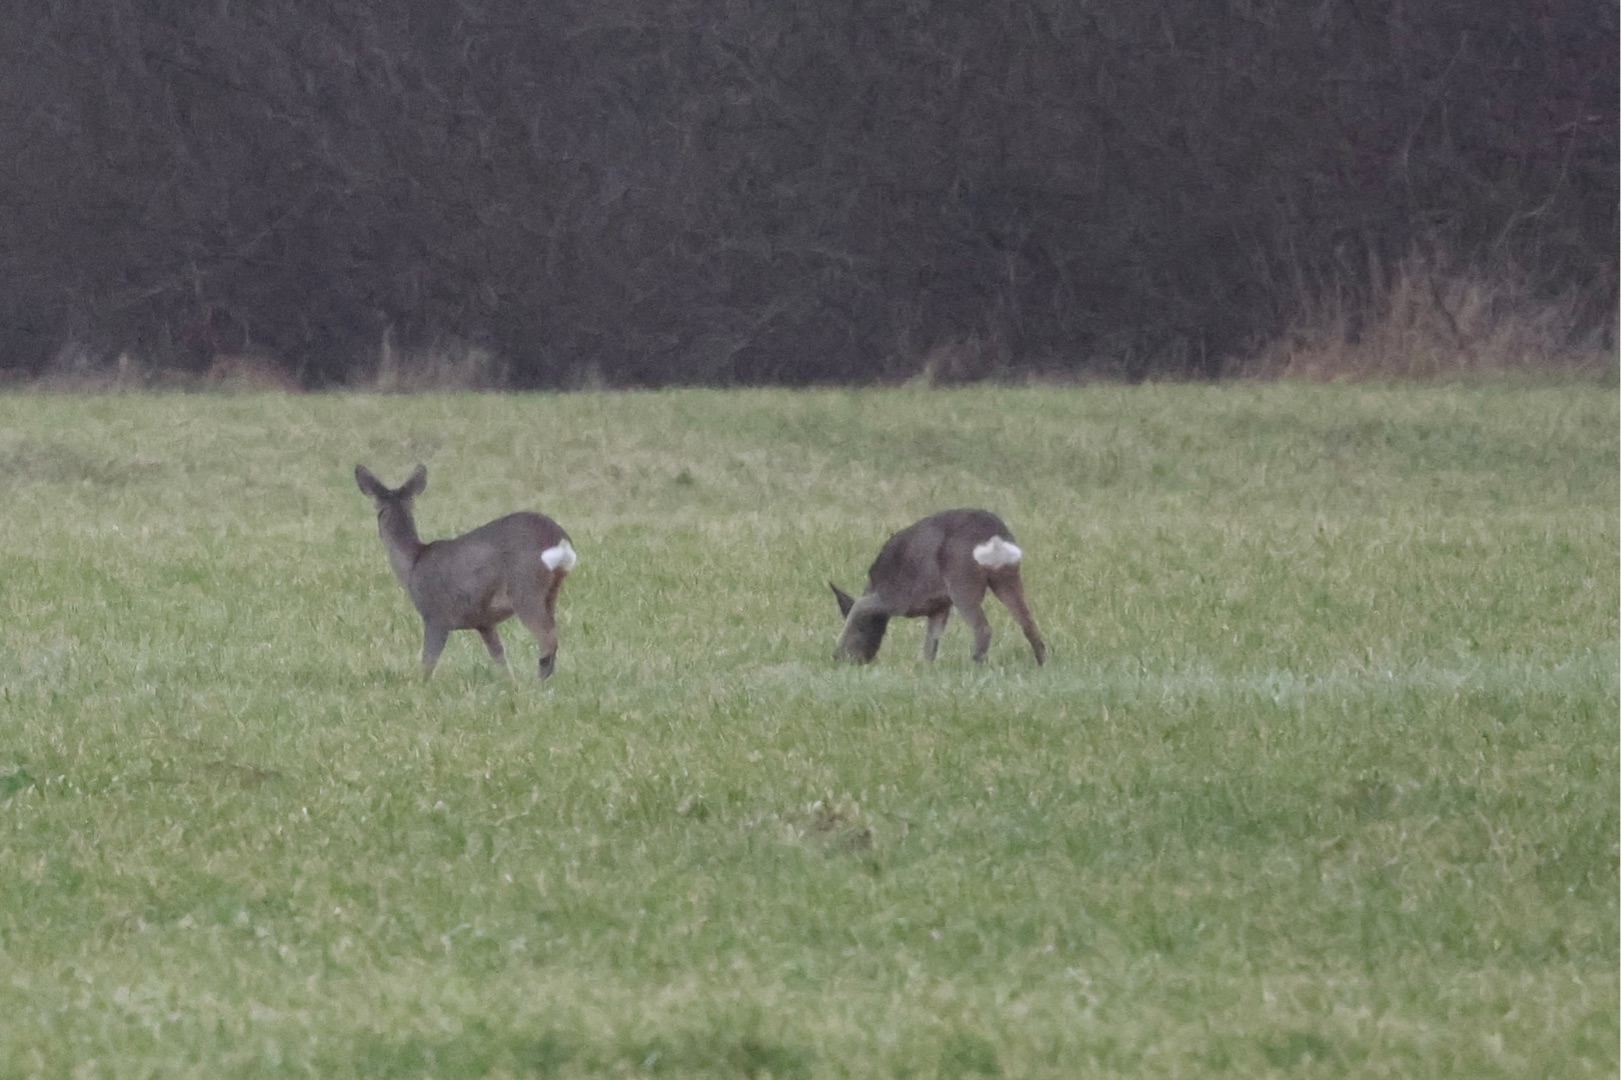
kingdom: Animalia
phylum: Chordata
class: Mammalia
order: Artiodactyla
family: Cervidae
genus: Capreolus
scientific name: Capreolus capreolus
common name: Rådyr
